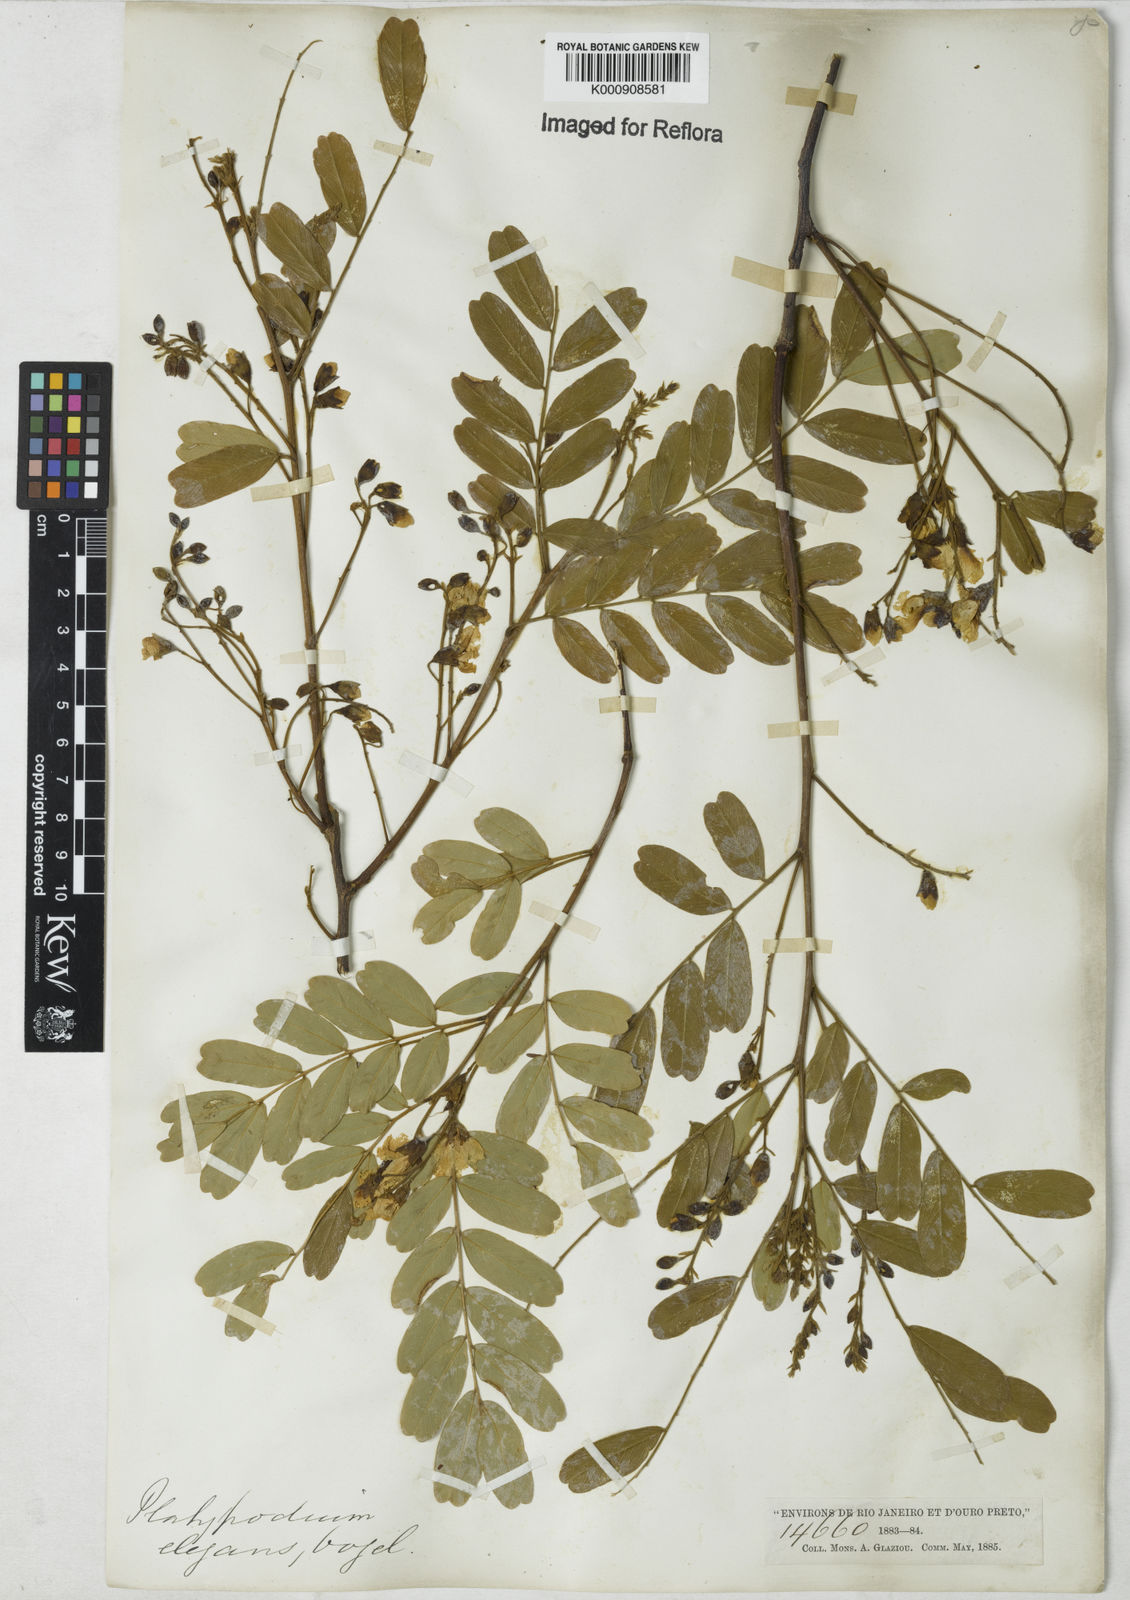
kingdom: Plantae
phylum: Tracheophyta
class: Magnoliopsida
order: Fabales
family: Fabaceae
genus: Platypodium
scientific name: Platypodium
